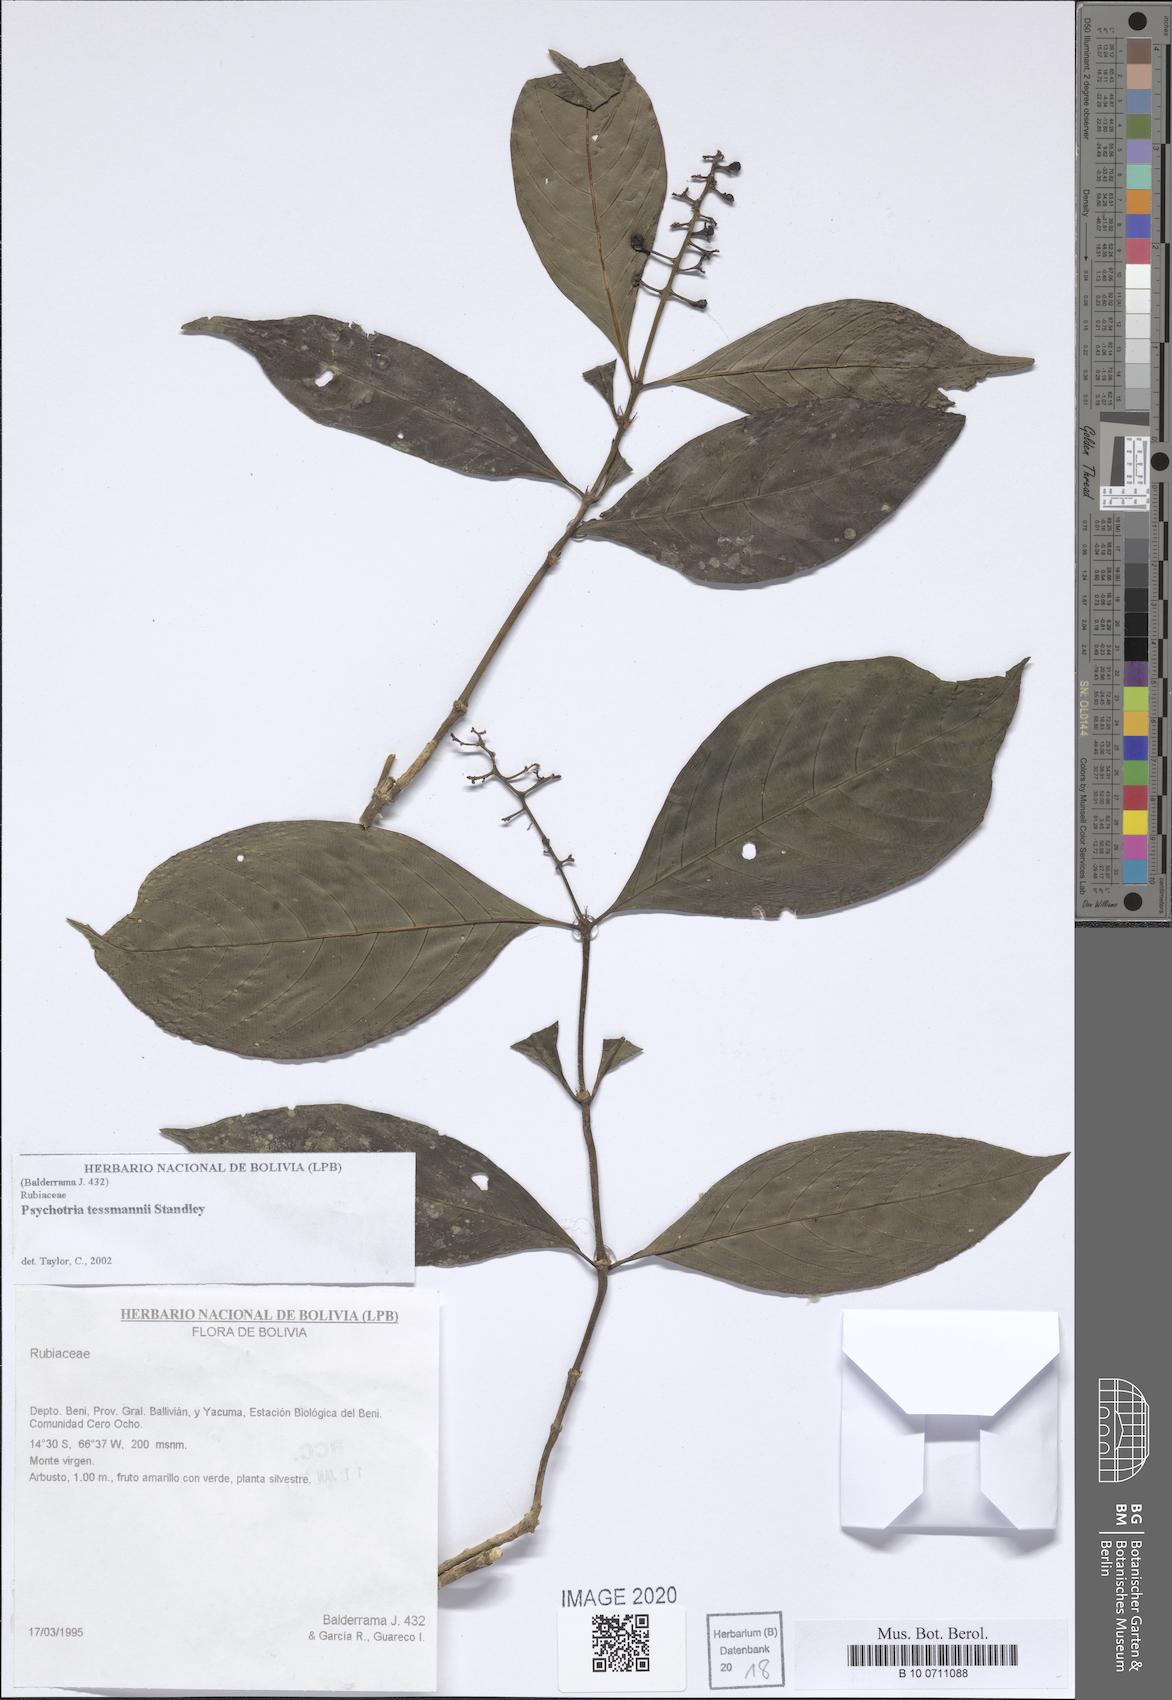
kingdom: Plantae
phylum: Tracheophyta
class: Magnoliopsida
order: Gentianales
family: Rubiaceae
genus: Palicourea
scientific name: Palicourea subfusca
